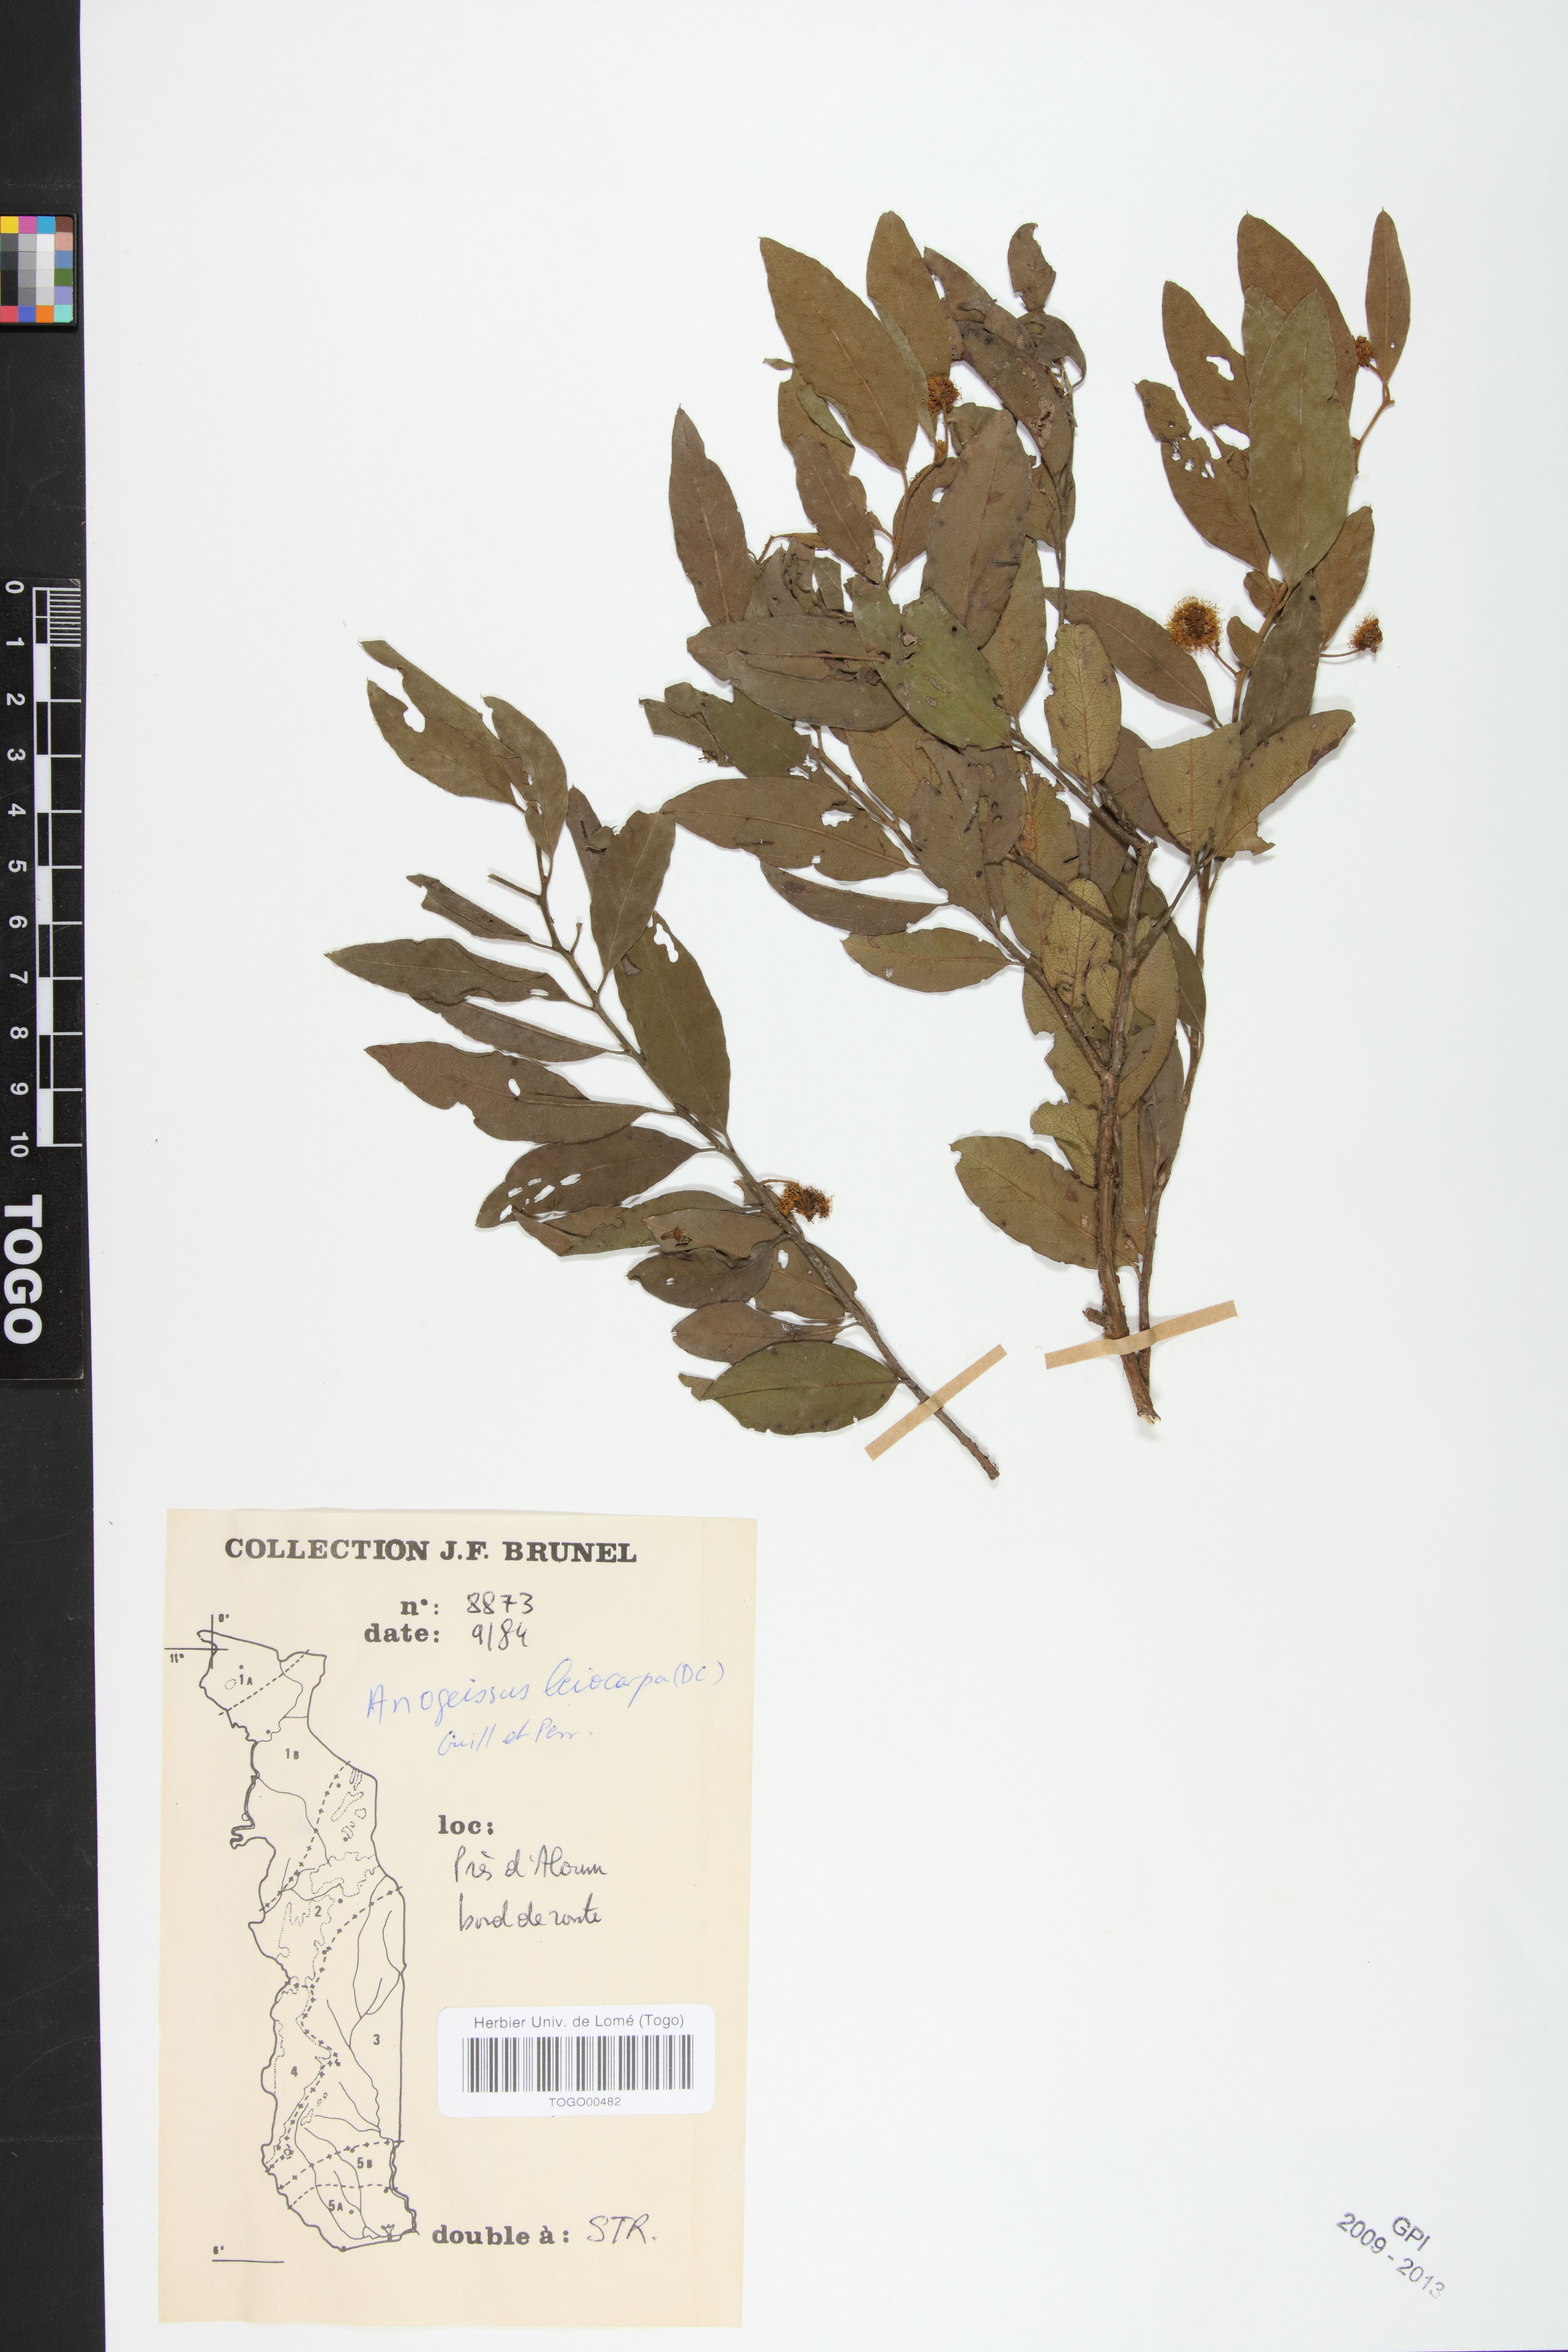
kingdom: Plantae
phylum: Tracheophyta
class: Magnoliopsida
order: Myrtales
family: Combretaceae
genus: Terminalia
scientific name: Terminalia leiocarpa
